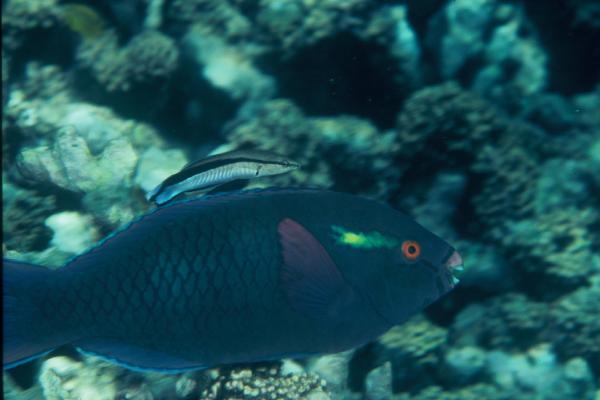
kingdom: Animalia
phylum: Chordata
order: Perciformes
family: Scaridae
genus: Scarus
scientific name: Scarus niger
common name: Dusky parrotfish
